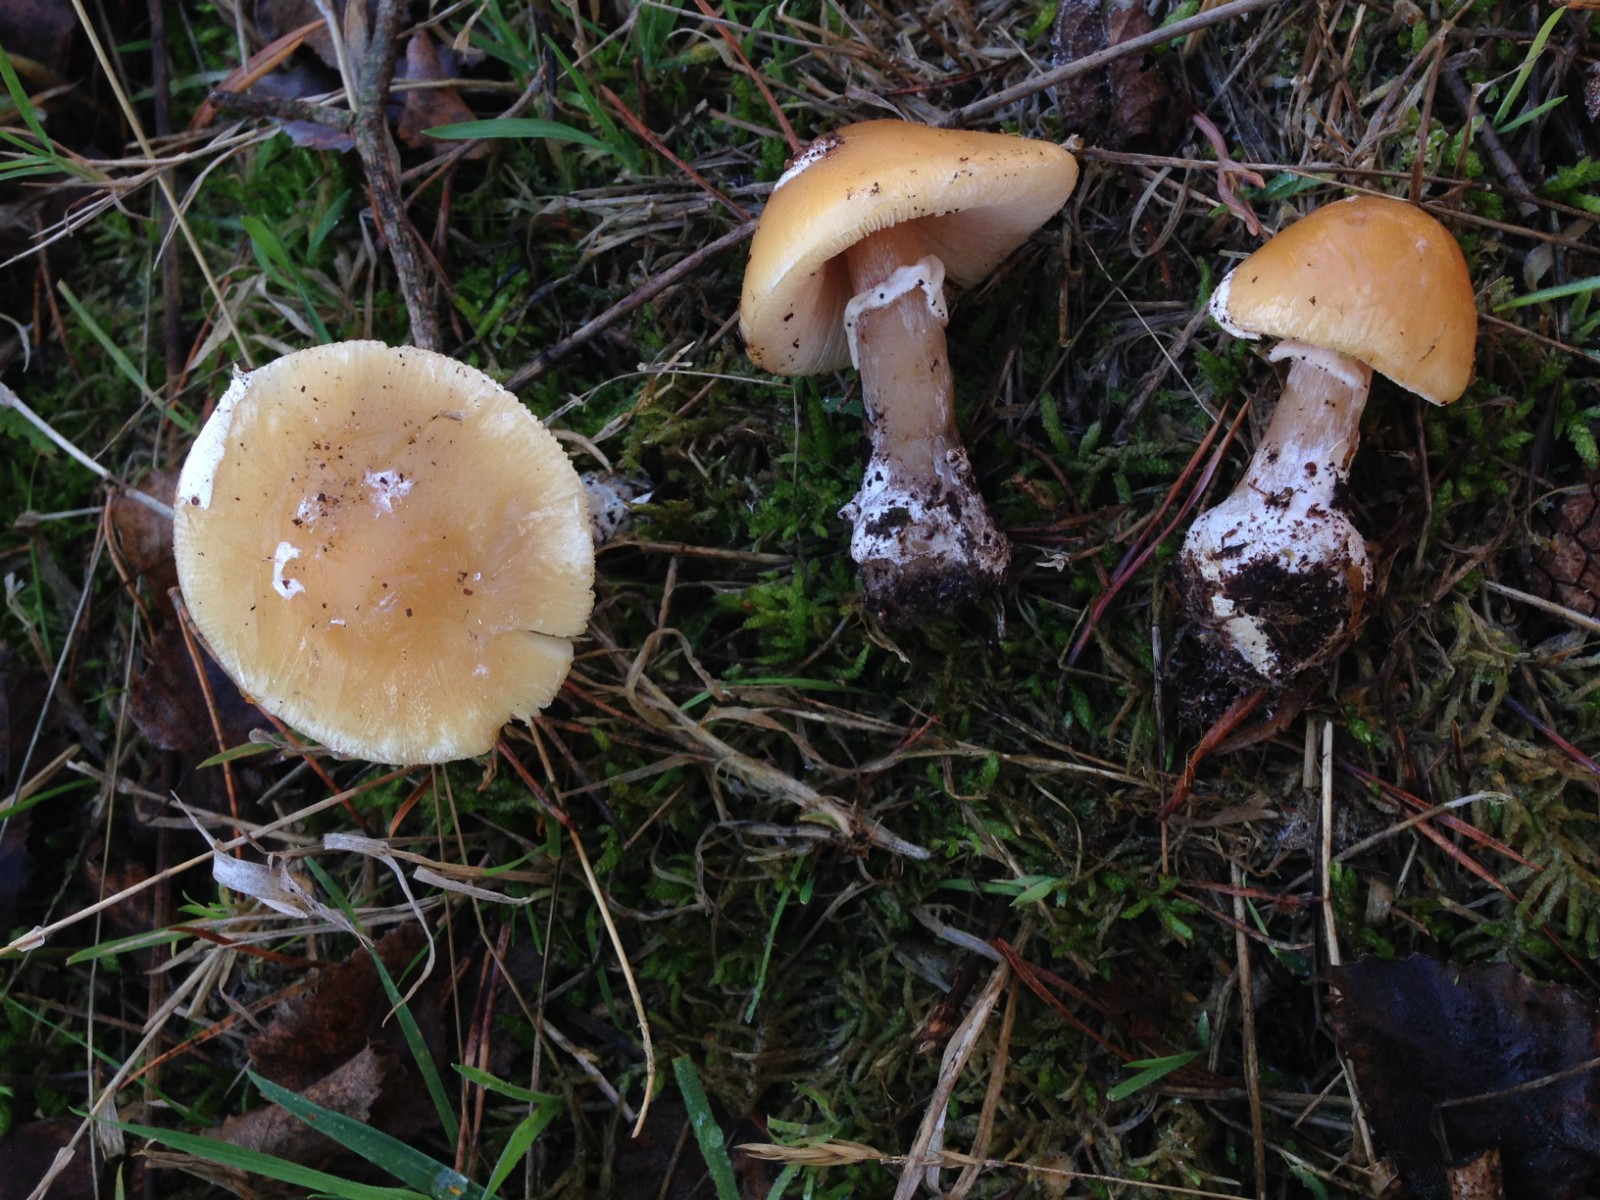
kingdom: Fungi
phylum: Basidiomycota
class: Agaricomycetes
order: Agaricales
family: Amanitaceae
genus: Amanita
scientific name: Amanita gemmata
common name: okkergul fluesvamp
